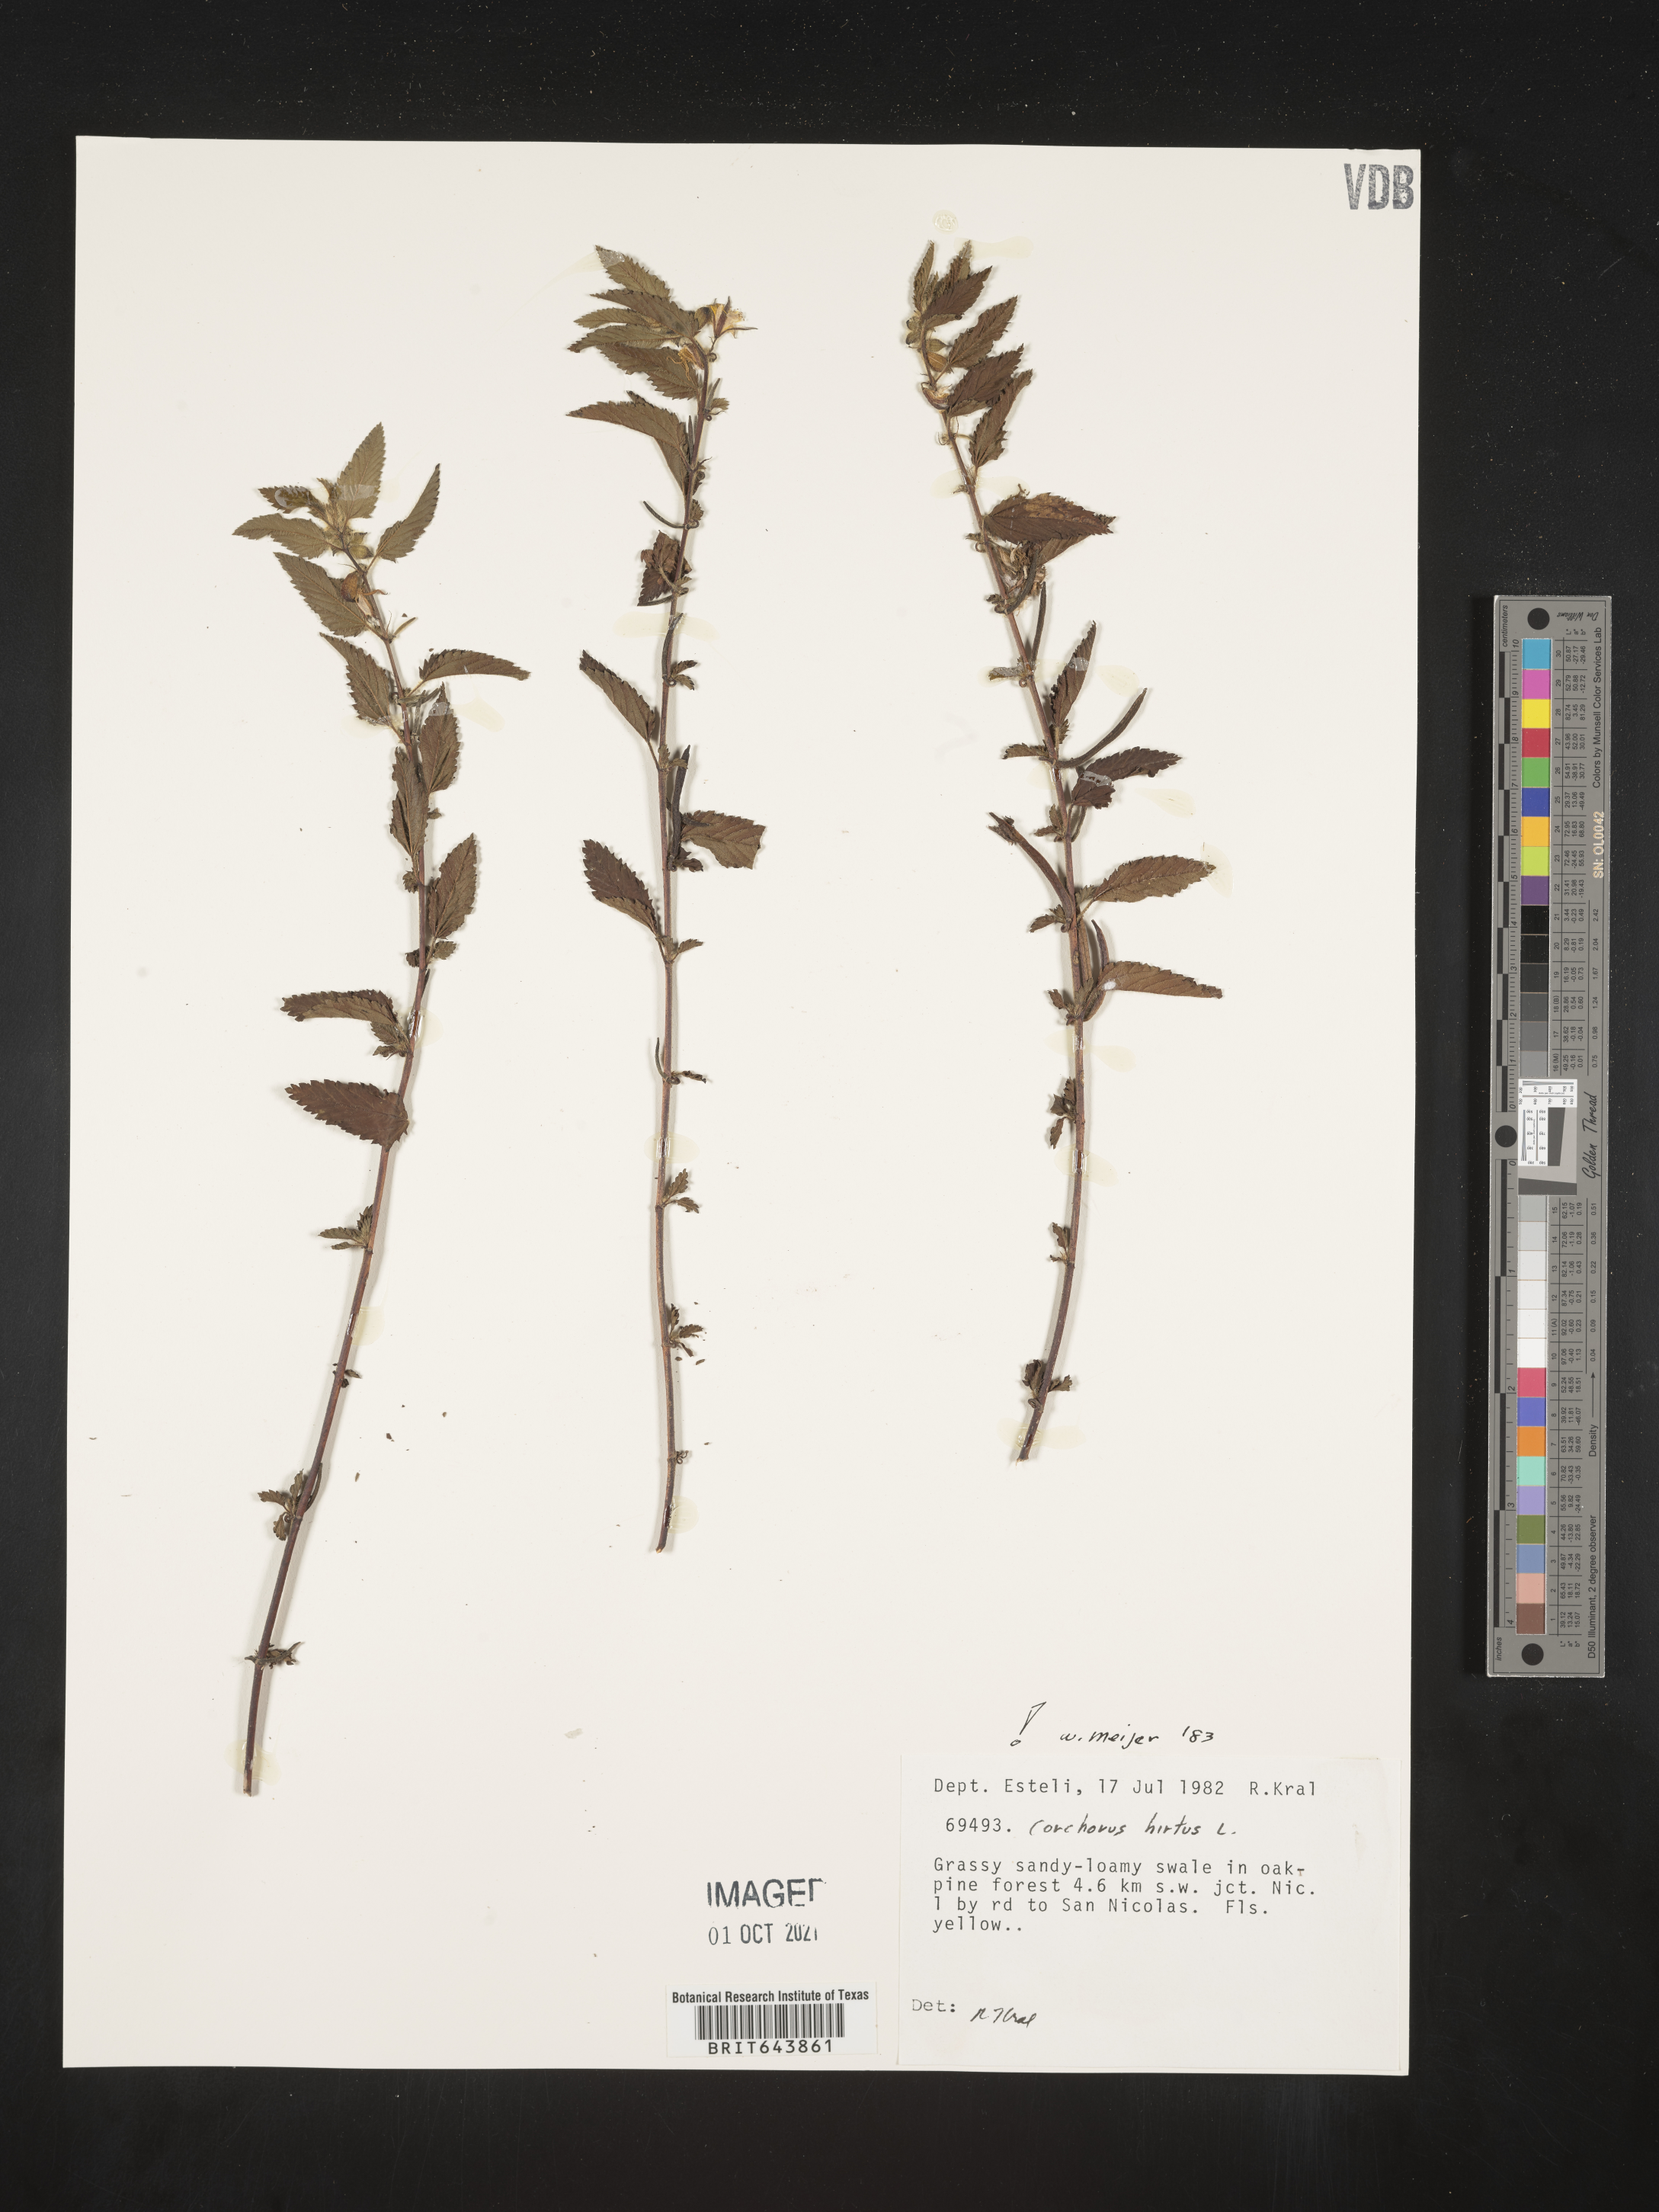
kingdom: Plantae
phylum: Tracheophyta
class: Magnoliopsida
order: Malvales
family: Malvaceae
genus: Corchorus
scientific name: Corchorus
